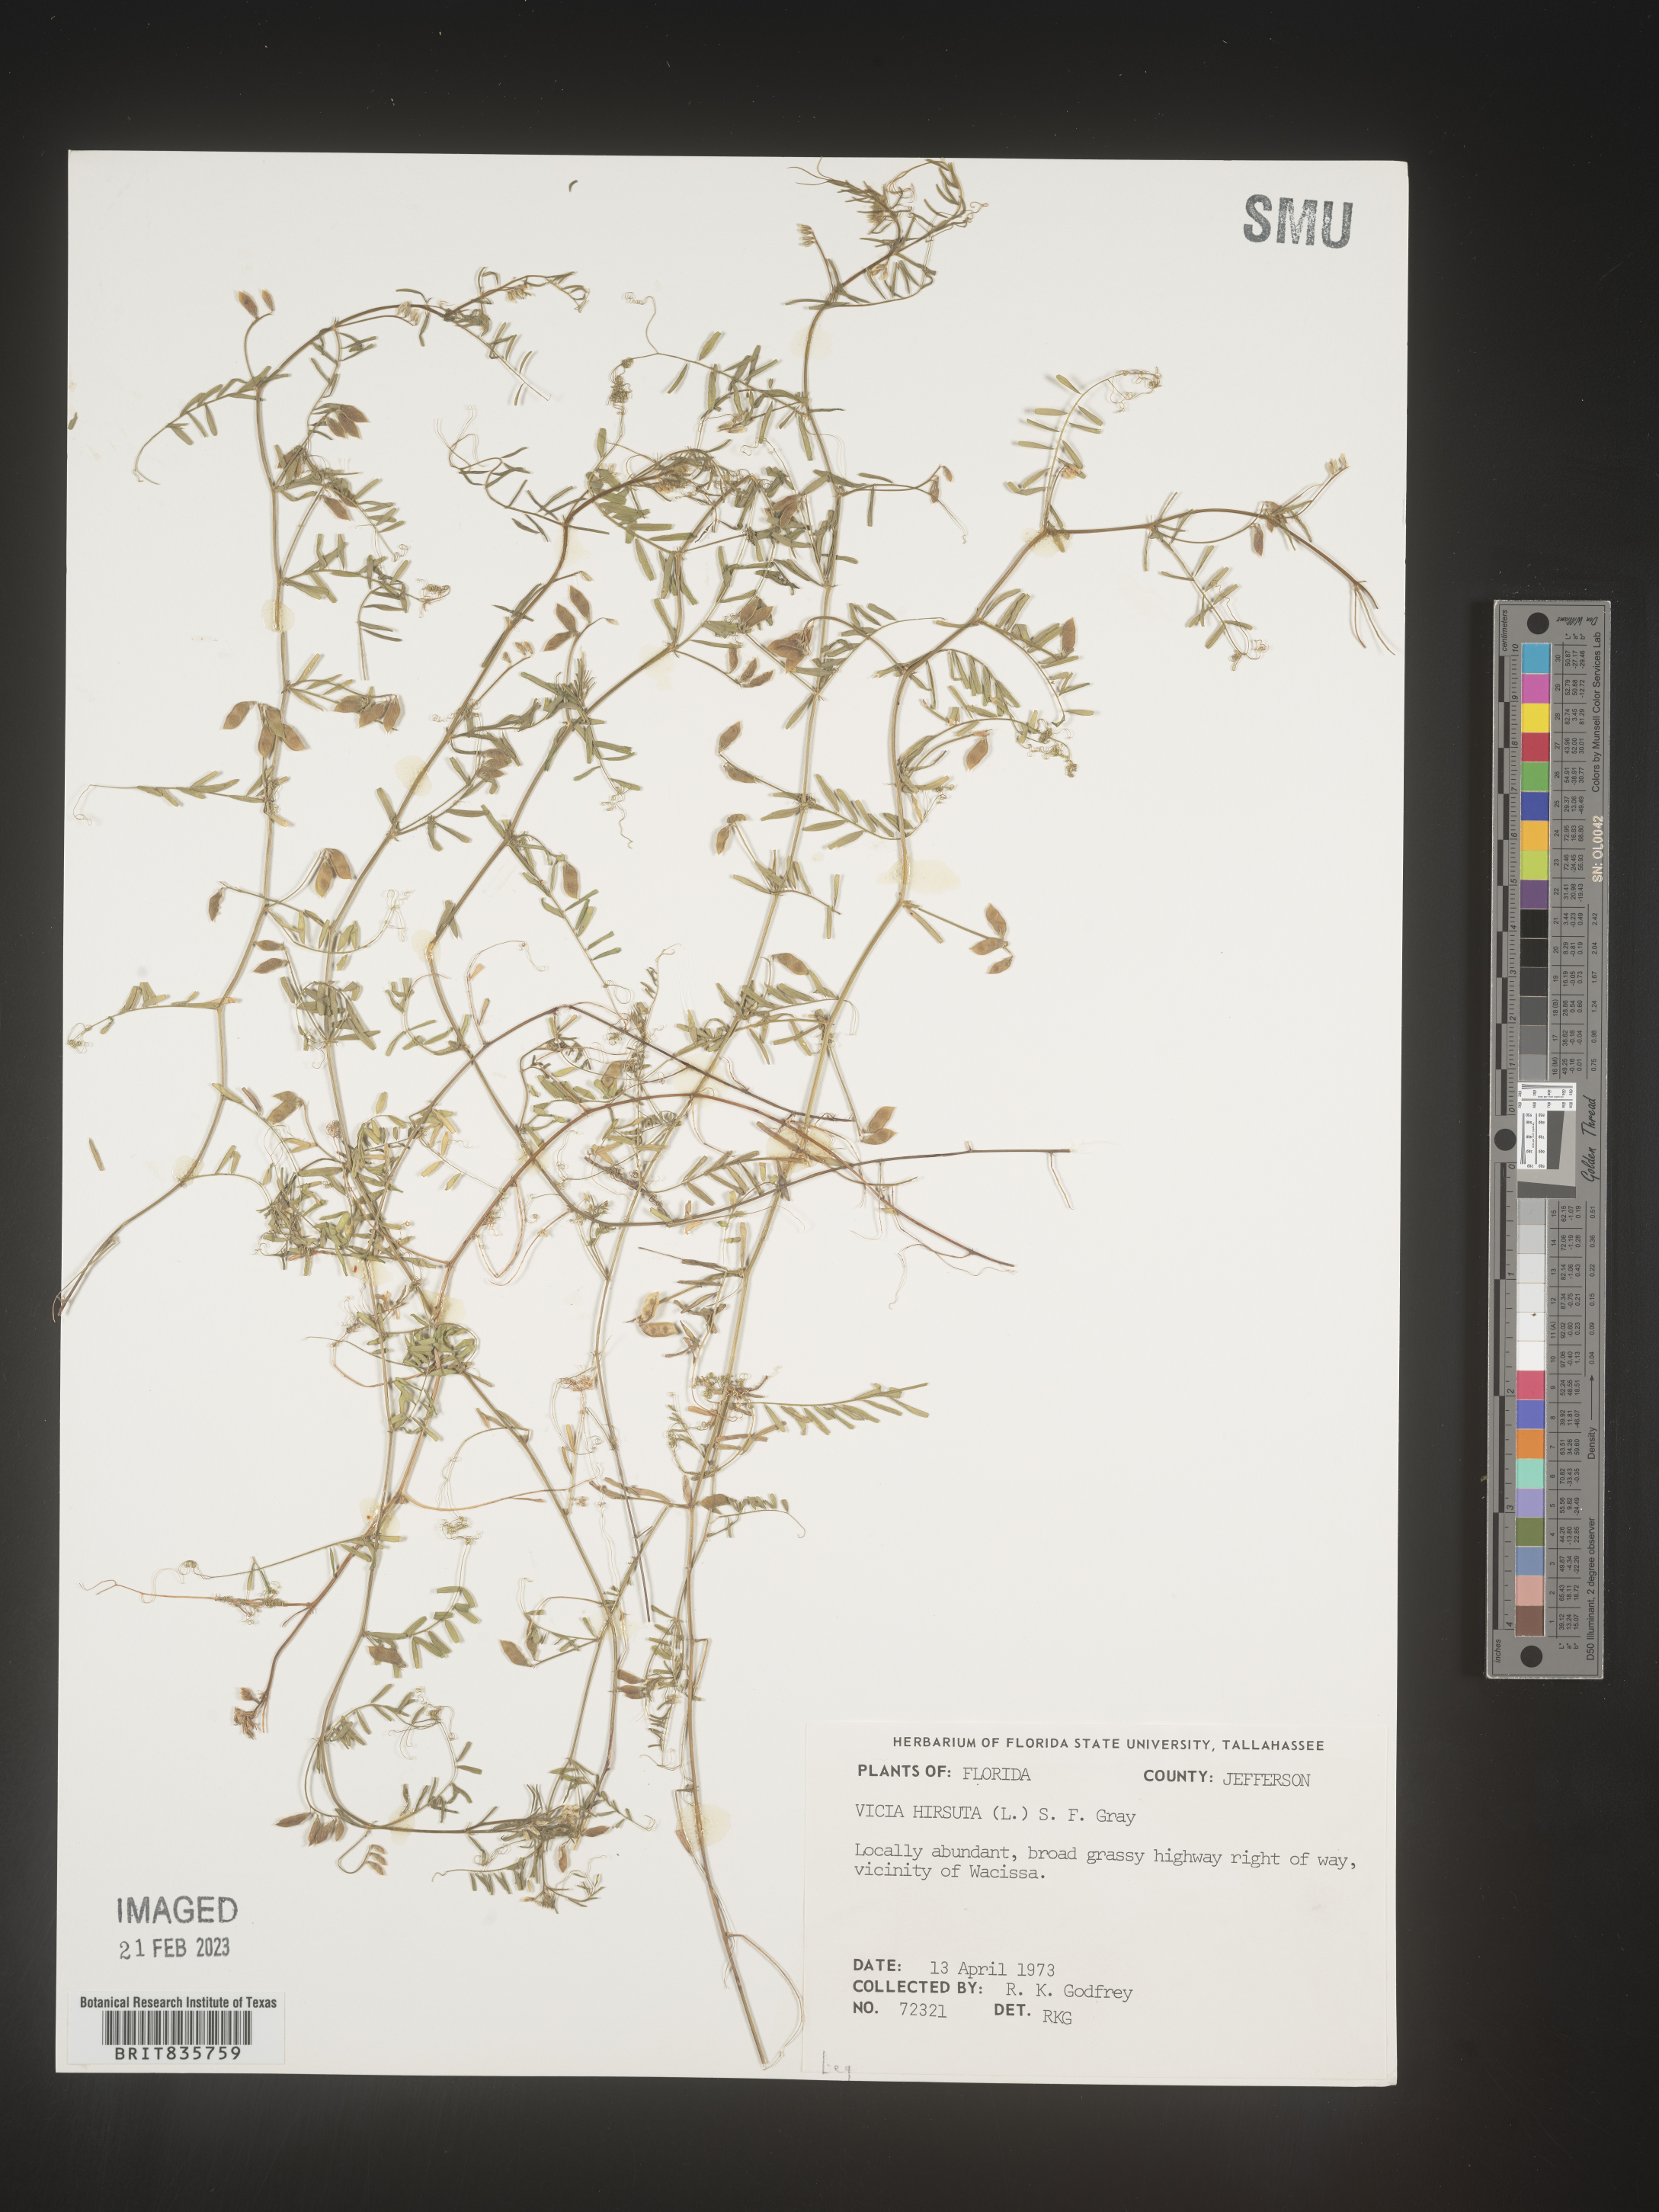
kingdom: Plantae
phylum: Tracheophyta
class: Magnoliopsida
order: Fabales
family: Fabaceae
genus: Vicia
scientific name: Vicia
